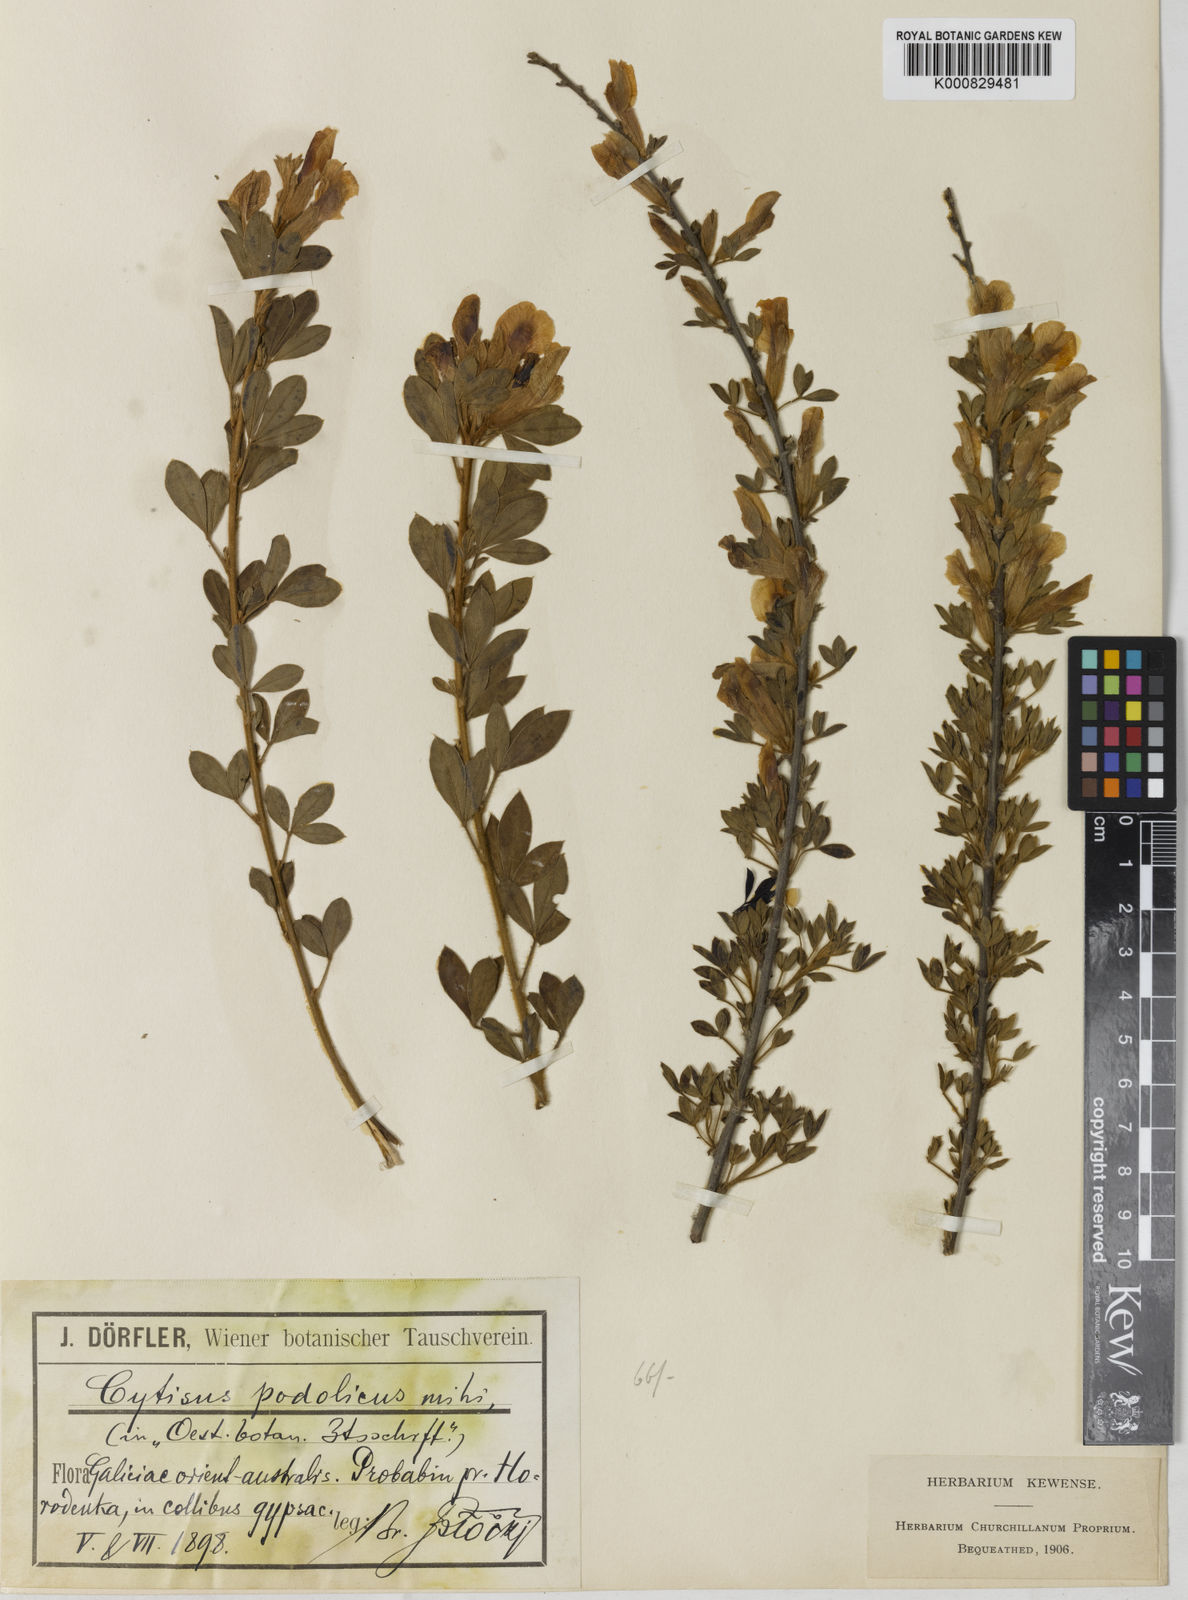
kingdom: Plantae
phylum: Tracheophyta
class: Magnoliopsida
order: Fabales
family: Fabaceae
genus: Chamaecytisus
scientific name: Chamaecytisus podolicus
